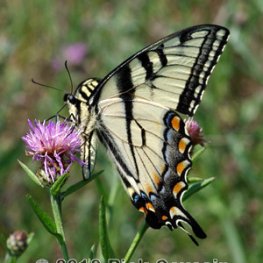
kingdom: Animalia
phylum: Arthropoda
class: Insecta
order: Lepidoptera
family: Papilionidae
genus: Pterourus
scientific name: Pterourus glaucus
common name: Eastern Tiger Swallowtail
